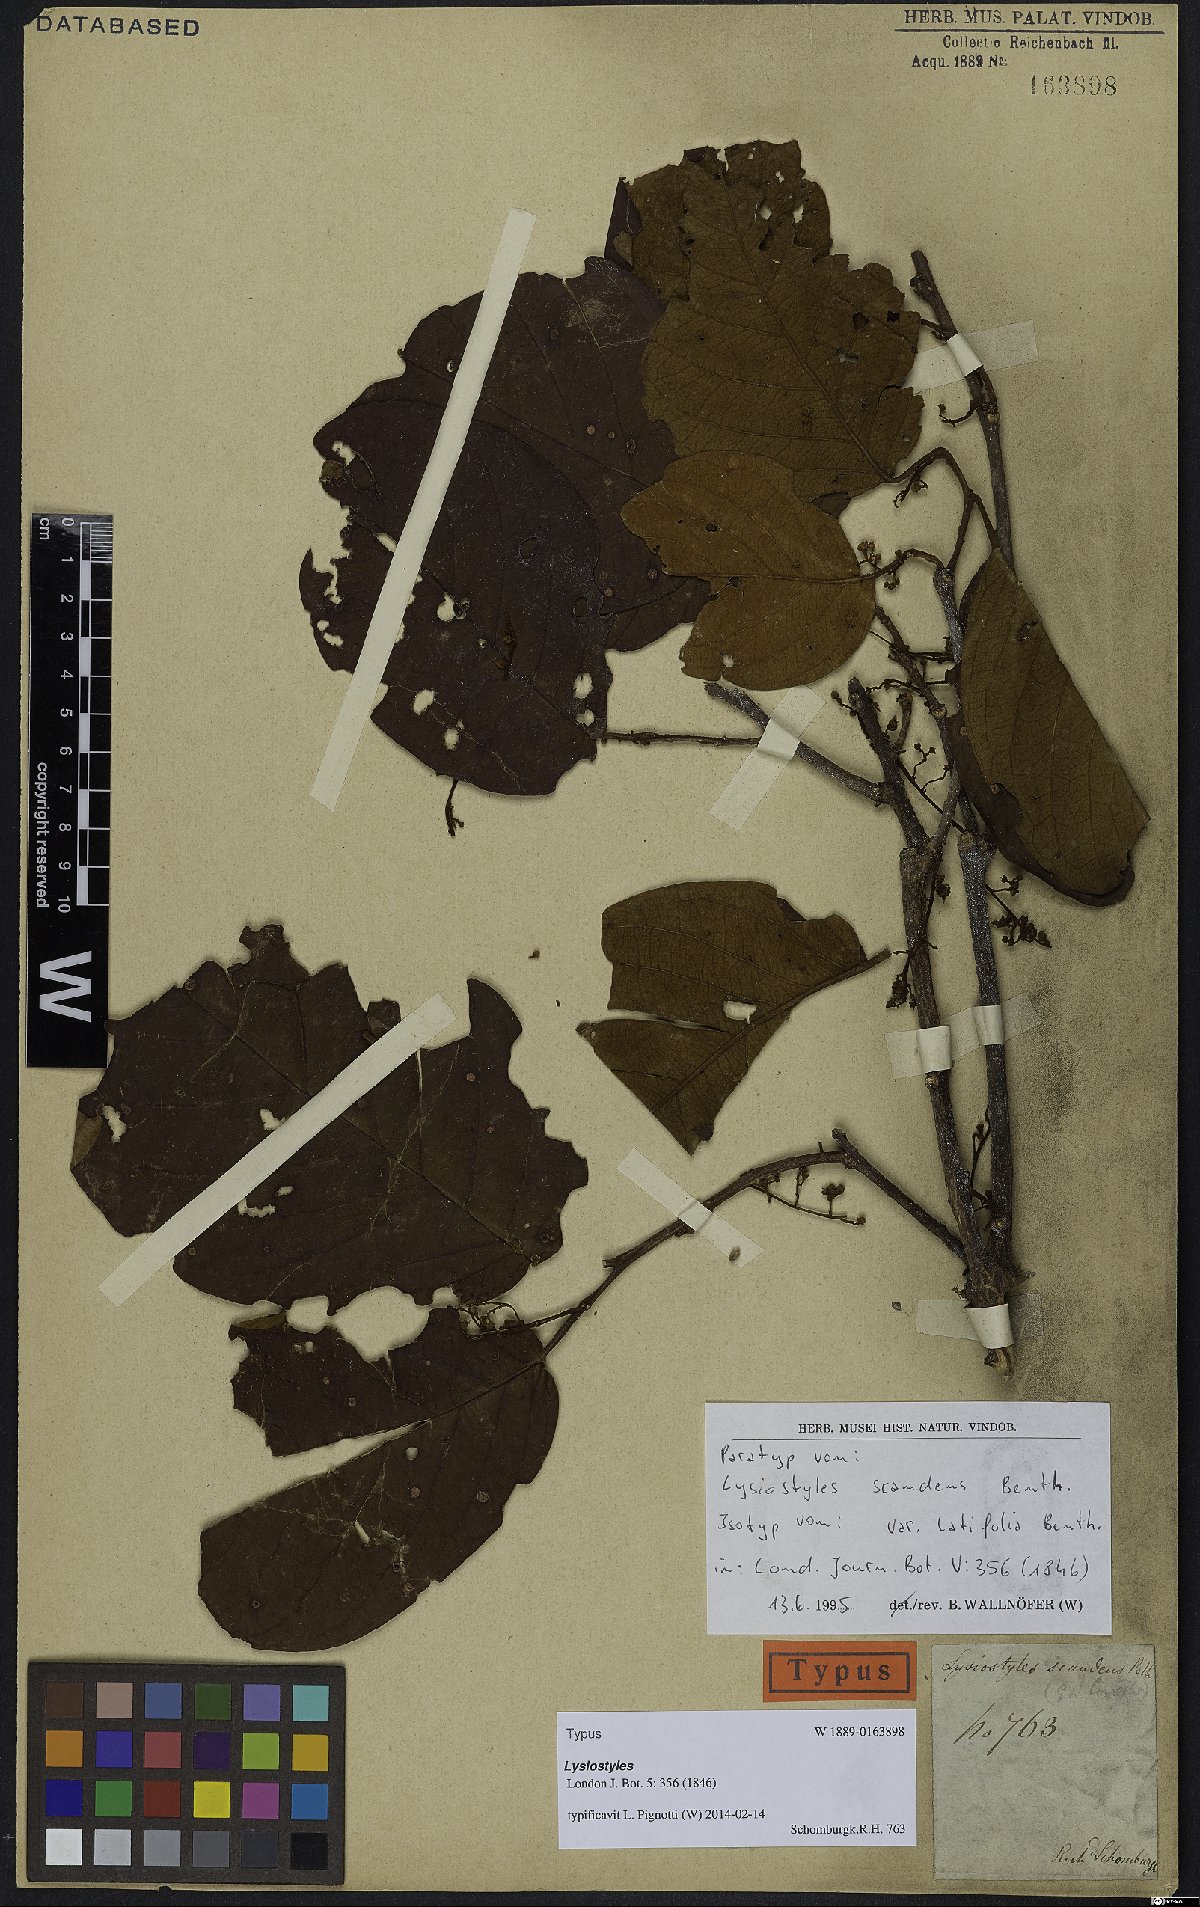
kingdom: Plantae
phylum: Tracheophyta
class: Magnoliopsida
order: Solanales
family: Convolvulaceae
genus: Lysiostyles
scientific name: Lysiostyles scandens
